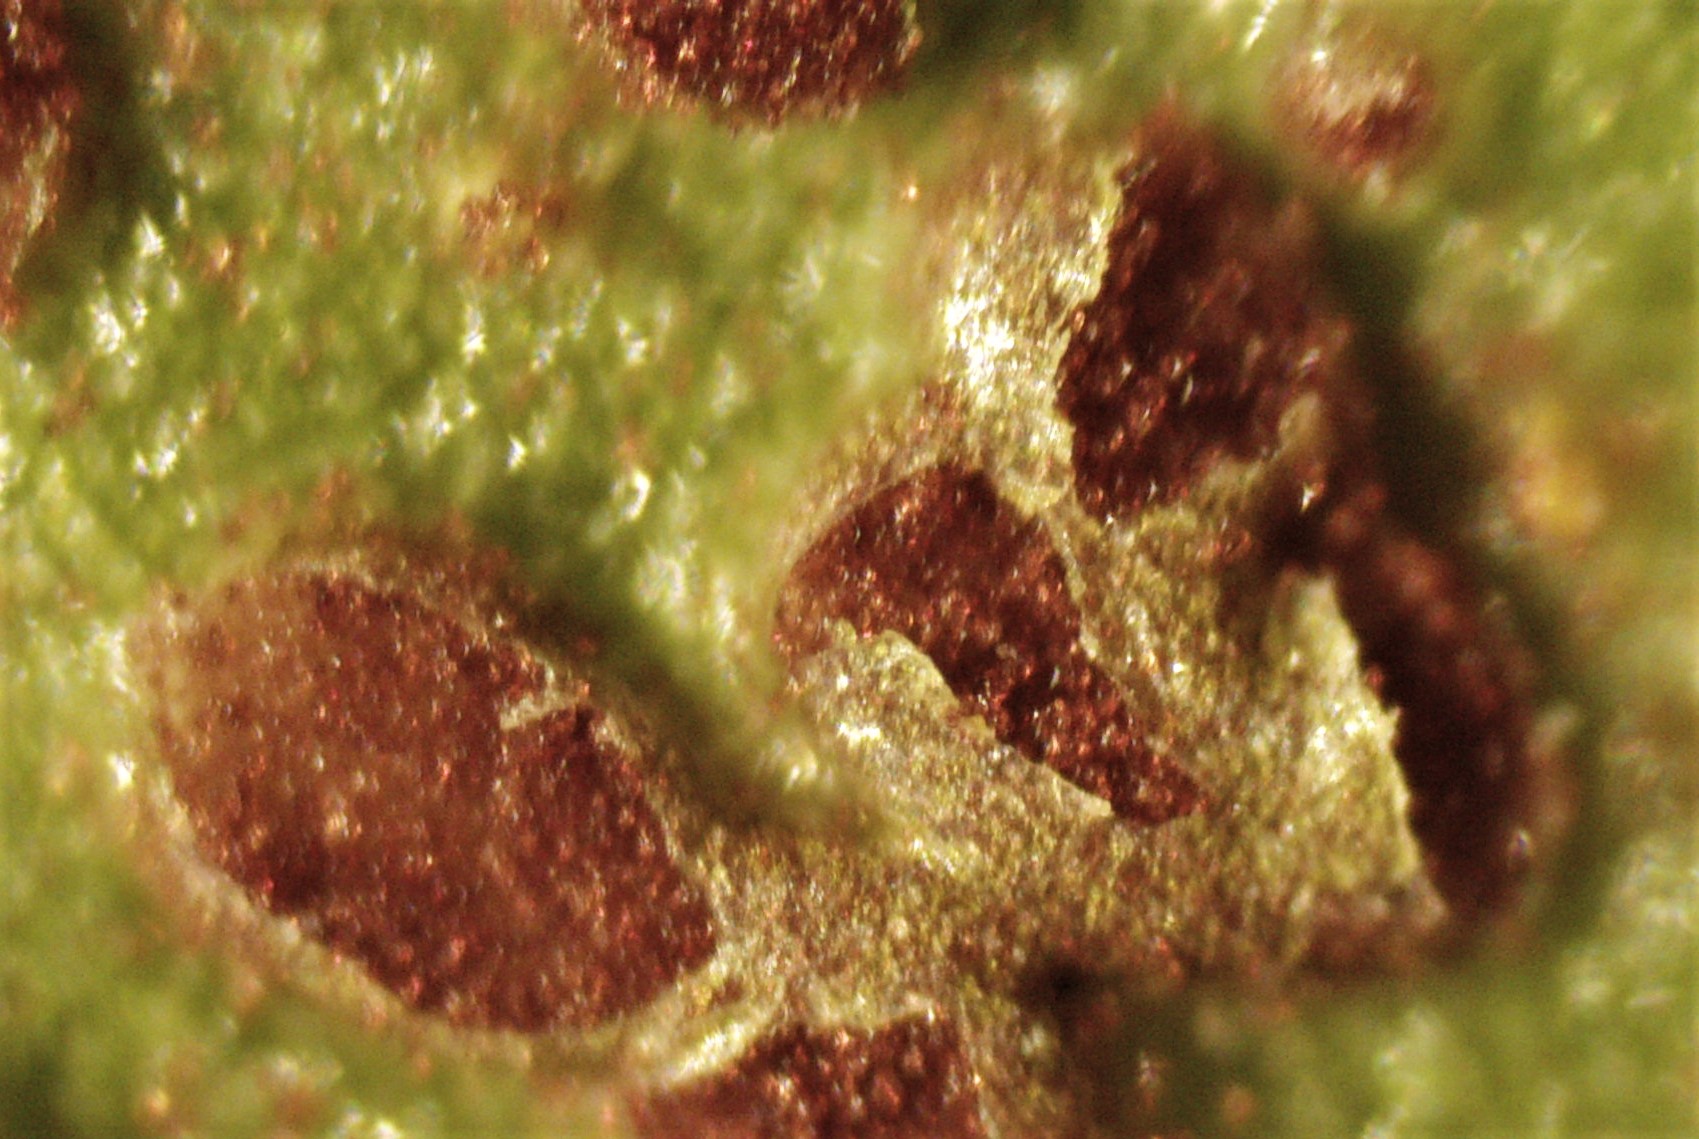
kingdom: Fungi
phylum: Basidiomycota
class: Pucciniomycetes
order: Pucciniales
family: Pucciniaceae
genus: Puccinia
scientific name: Puccinia vincae
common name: Periwinkle rust
